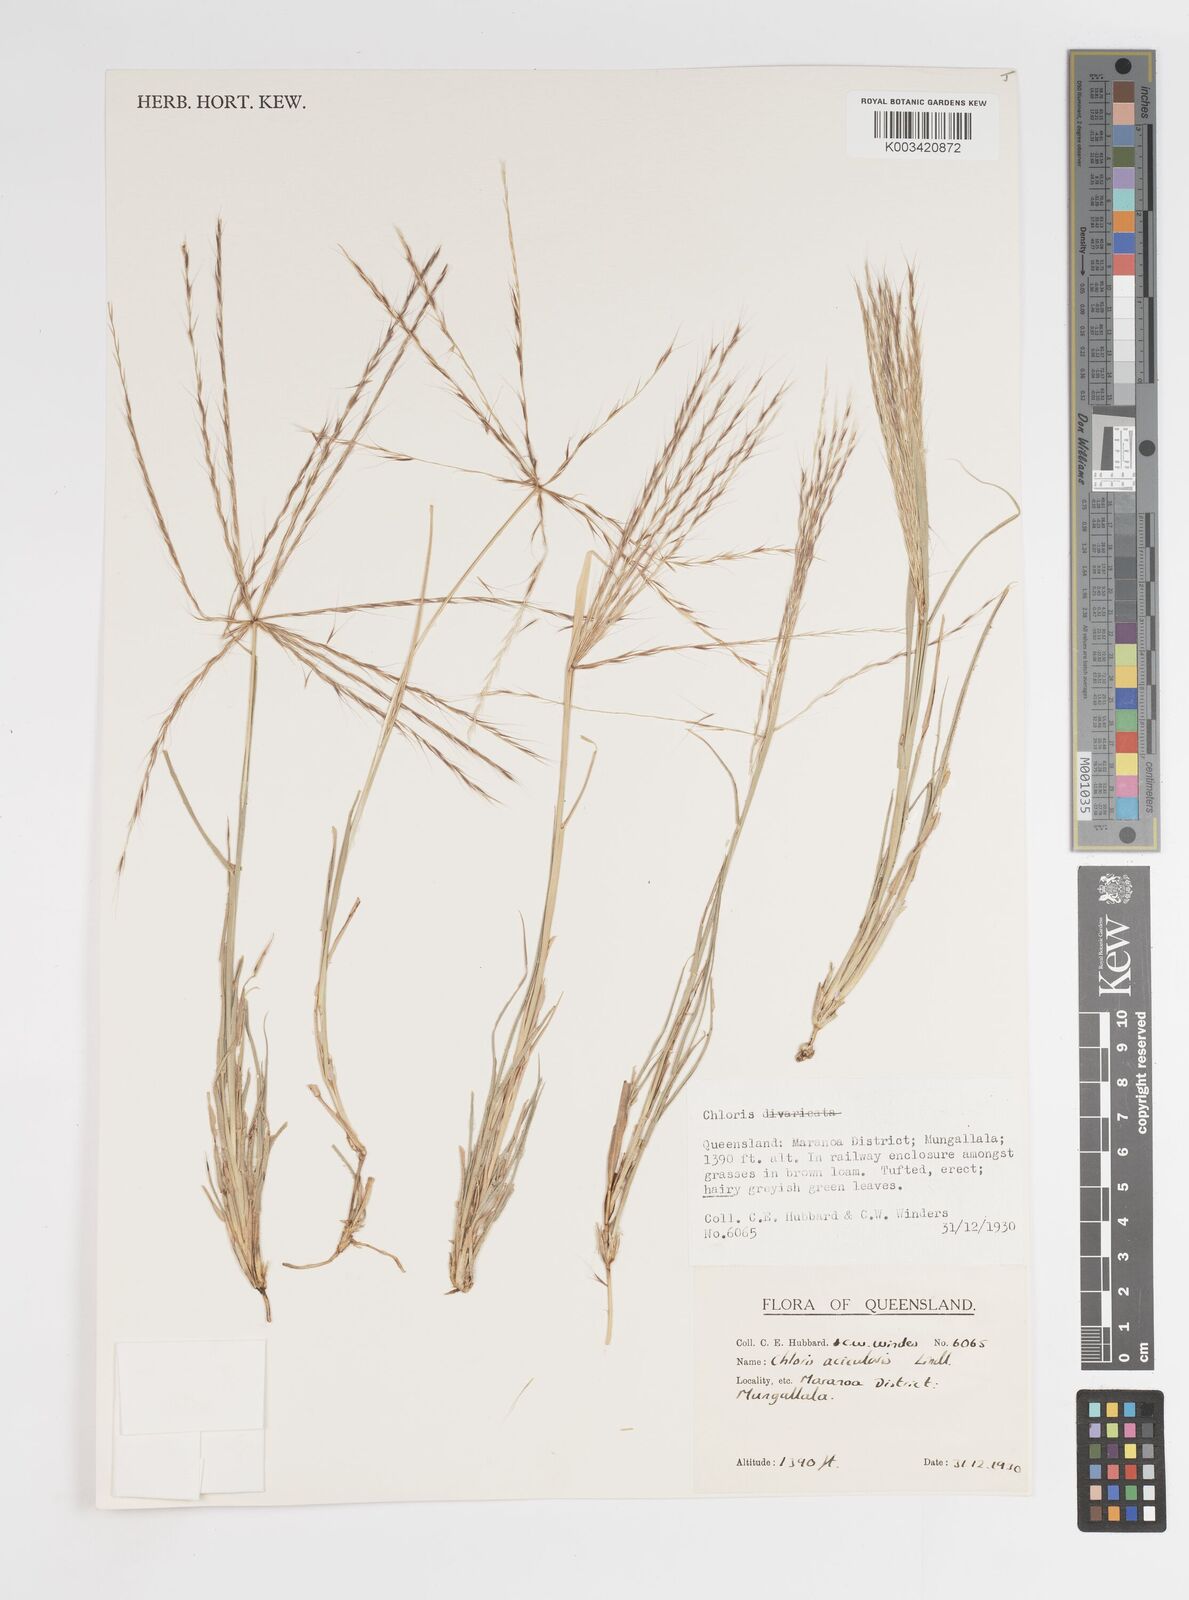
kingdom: Plantae
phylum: Tracheophyta
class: Liliopsida
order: Poales
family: Poaceae
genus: Enteropogon
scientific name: Enteropogon acicularis
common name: Curly windmill grass
